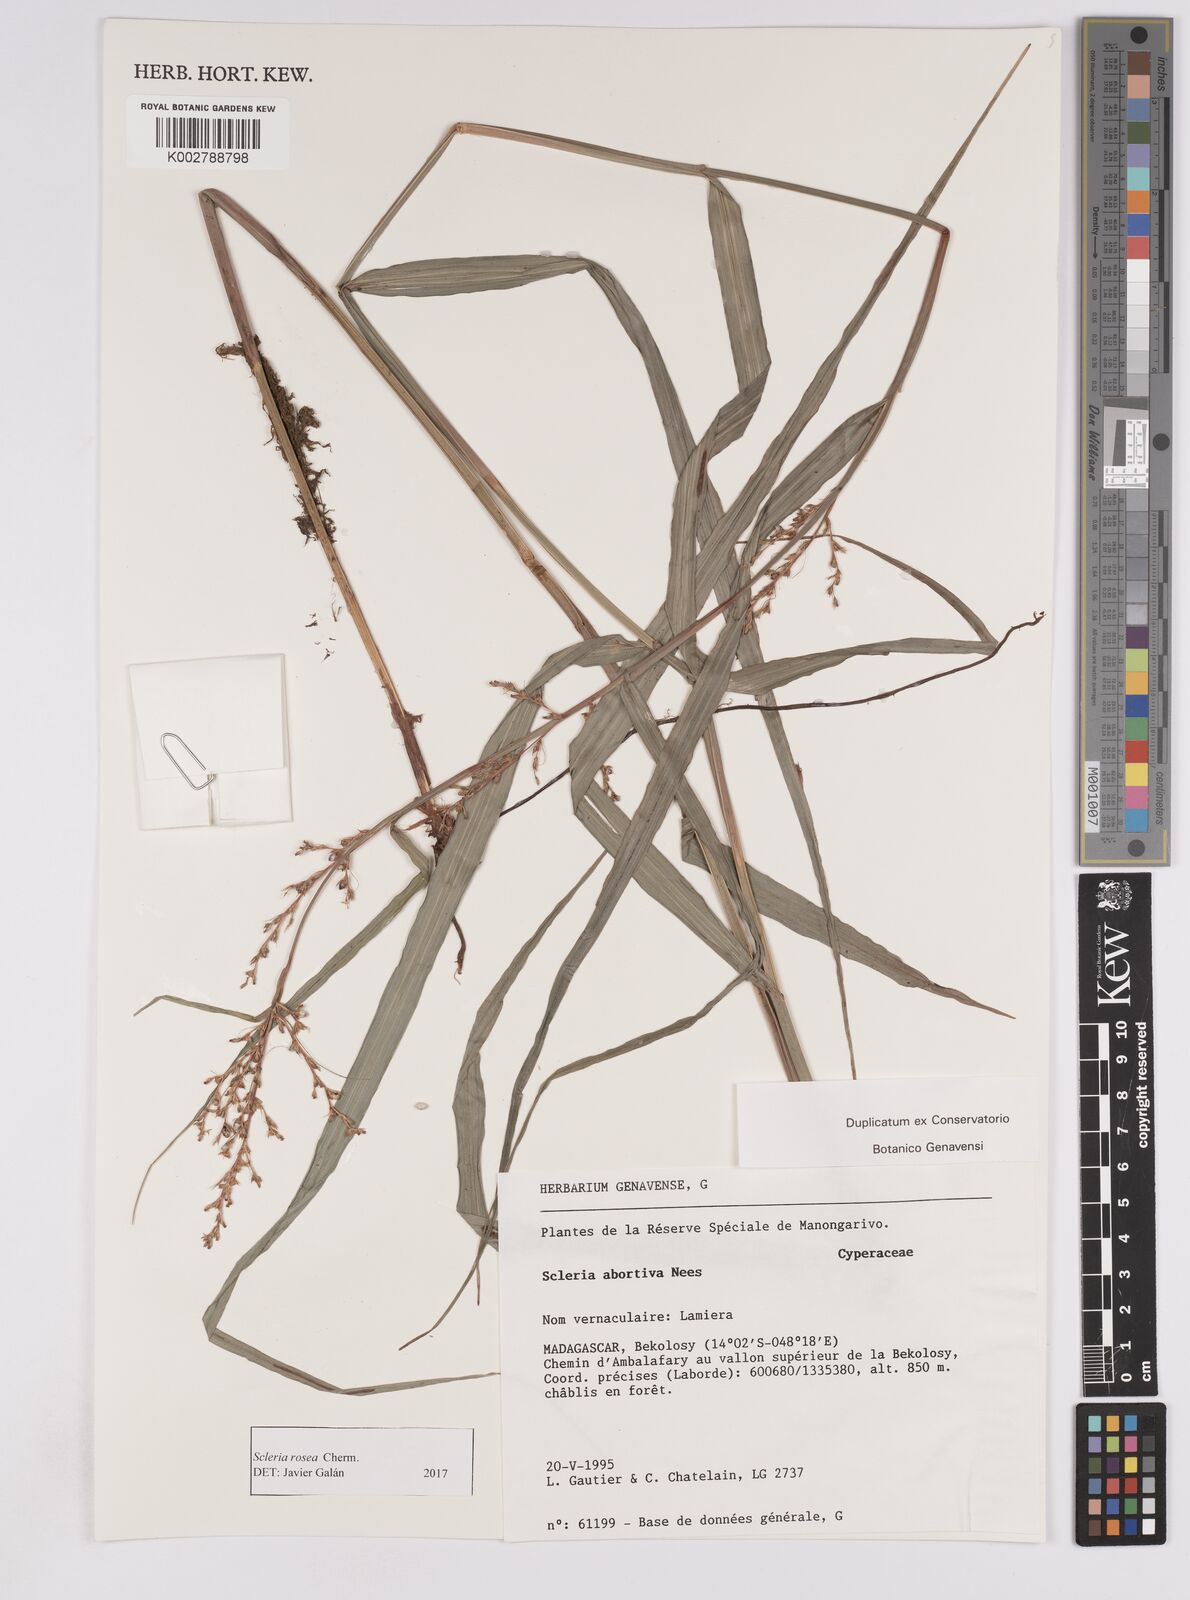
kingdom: Plantae
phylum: Tracheophyta
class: Liliopsida
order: Poales
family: Cyperaceae
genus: Scleria
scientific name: Scleria trialata
